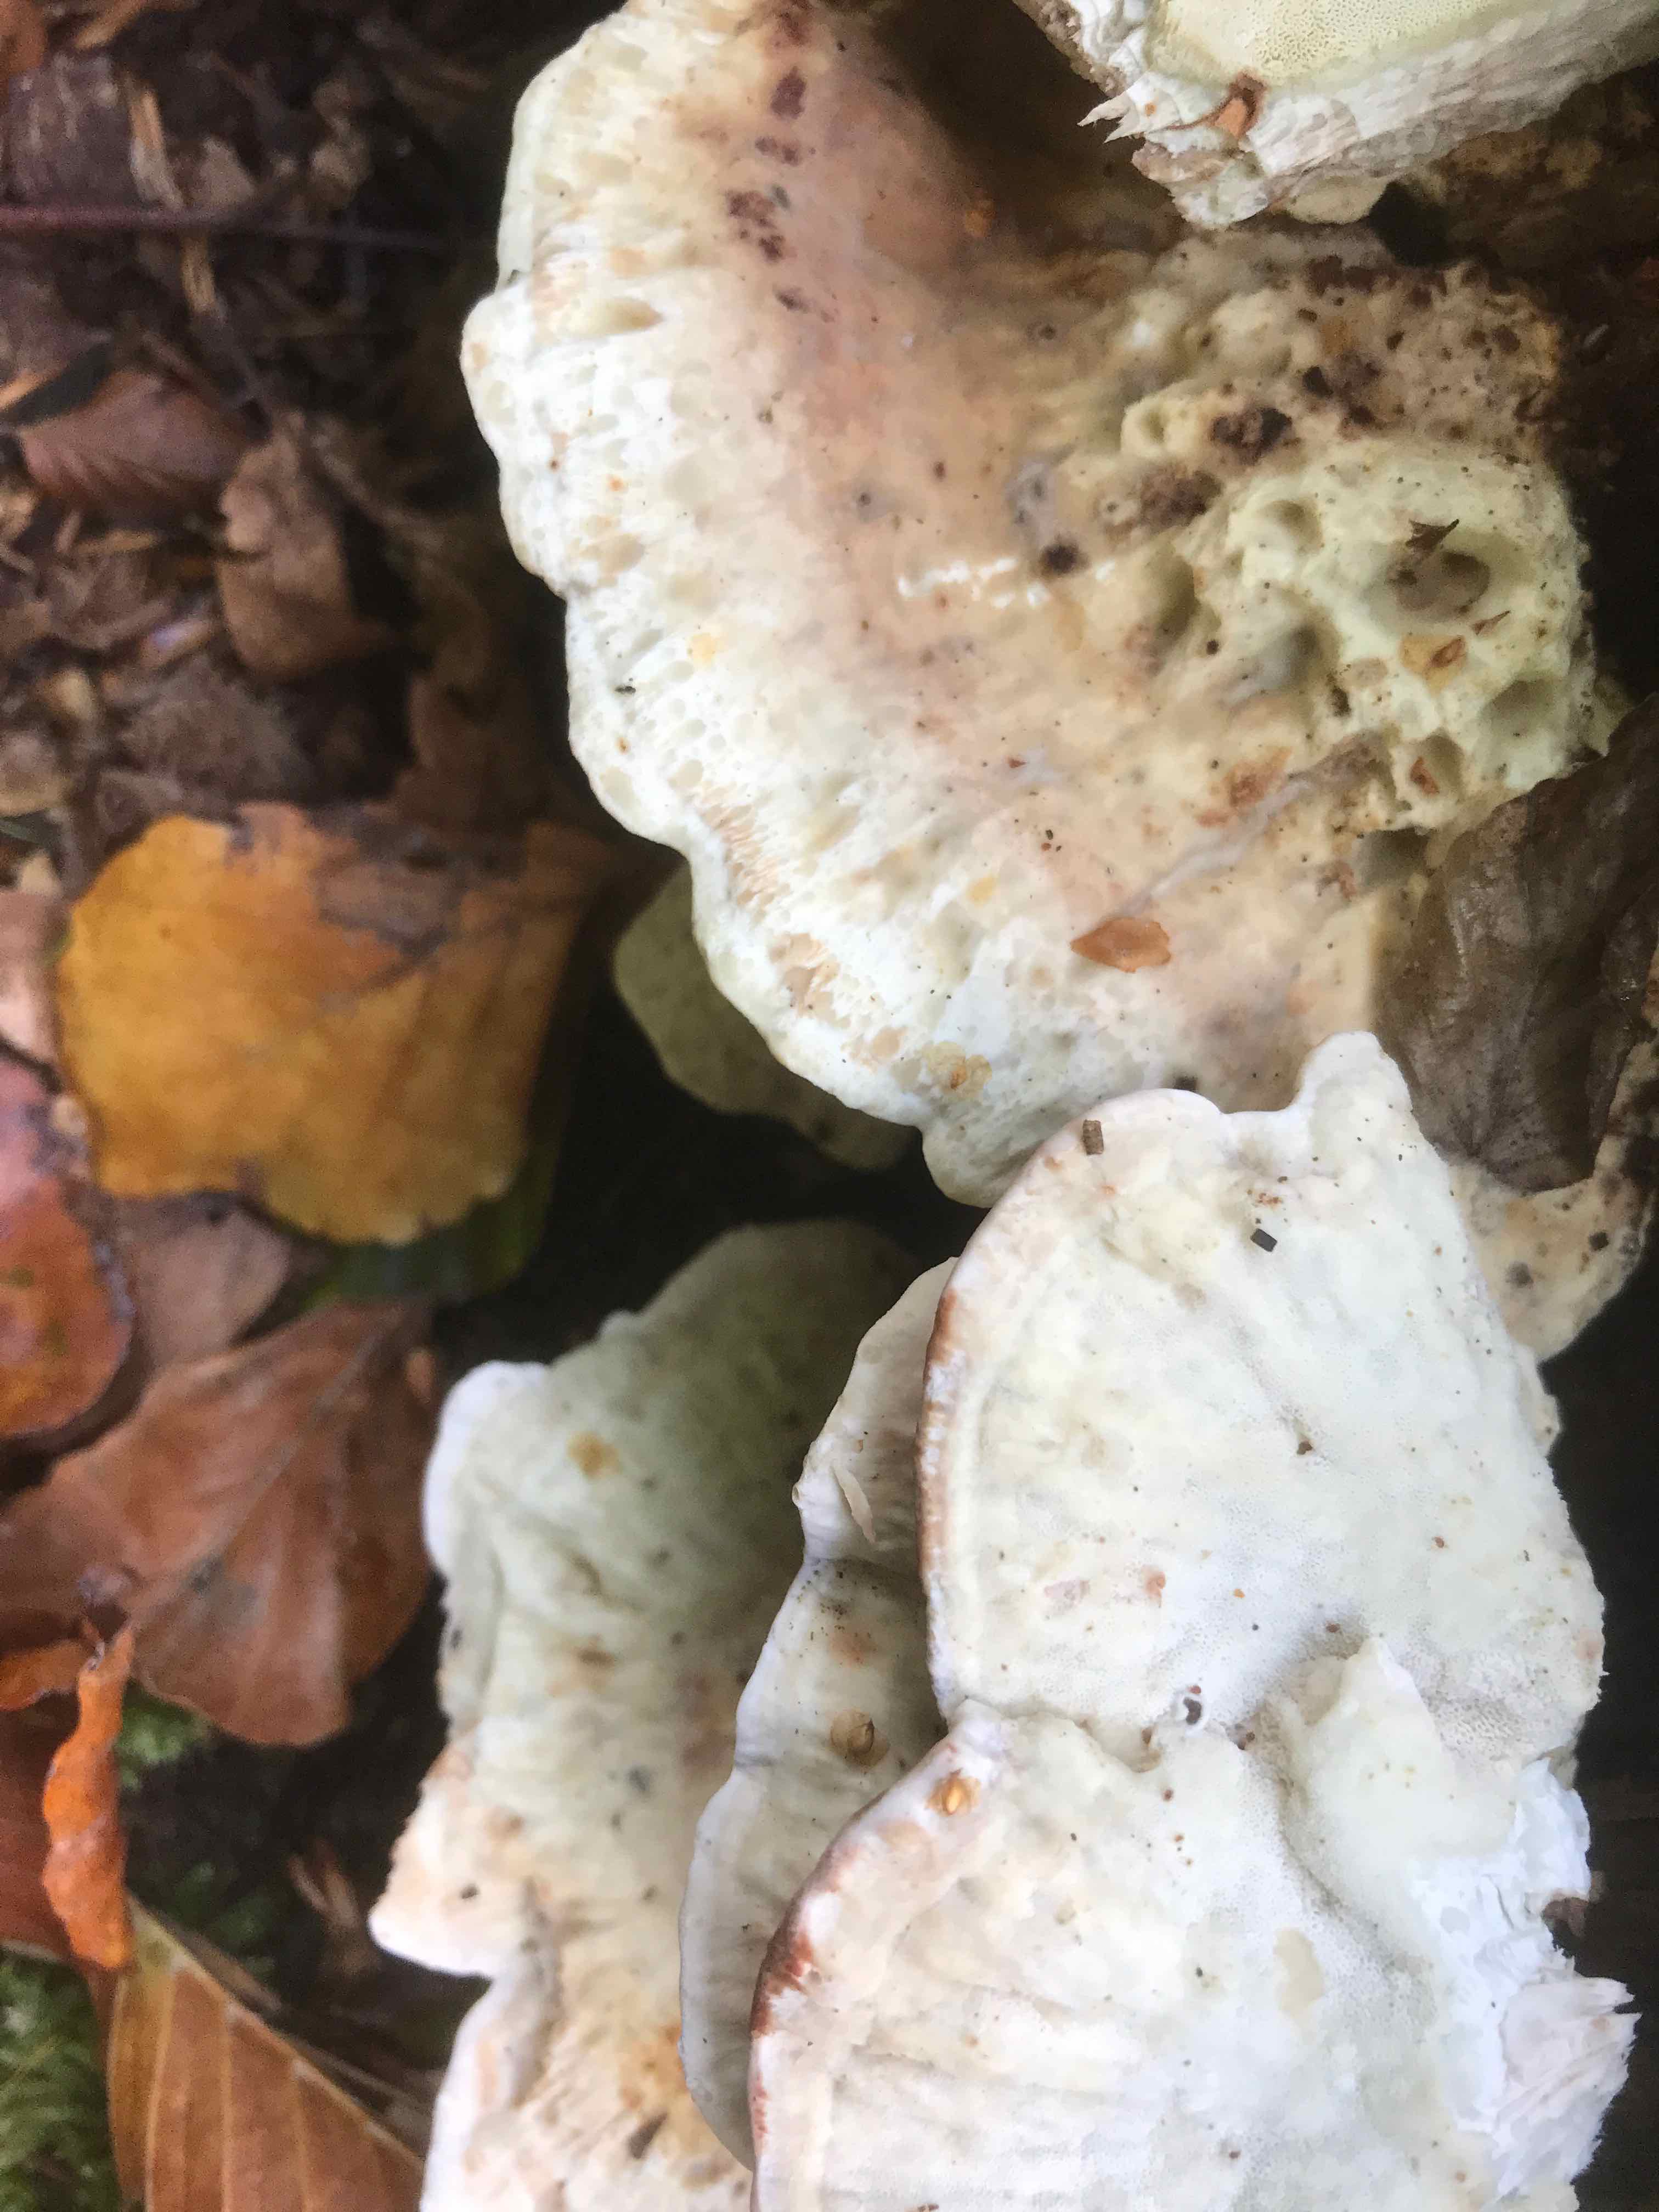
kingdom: Fungi
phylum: Basidiomycota
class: Agaricomycetes
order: Polyporales
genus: Calcipostia
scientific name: Calcipostia guttulata
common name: dråbe-kødporesvamp
